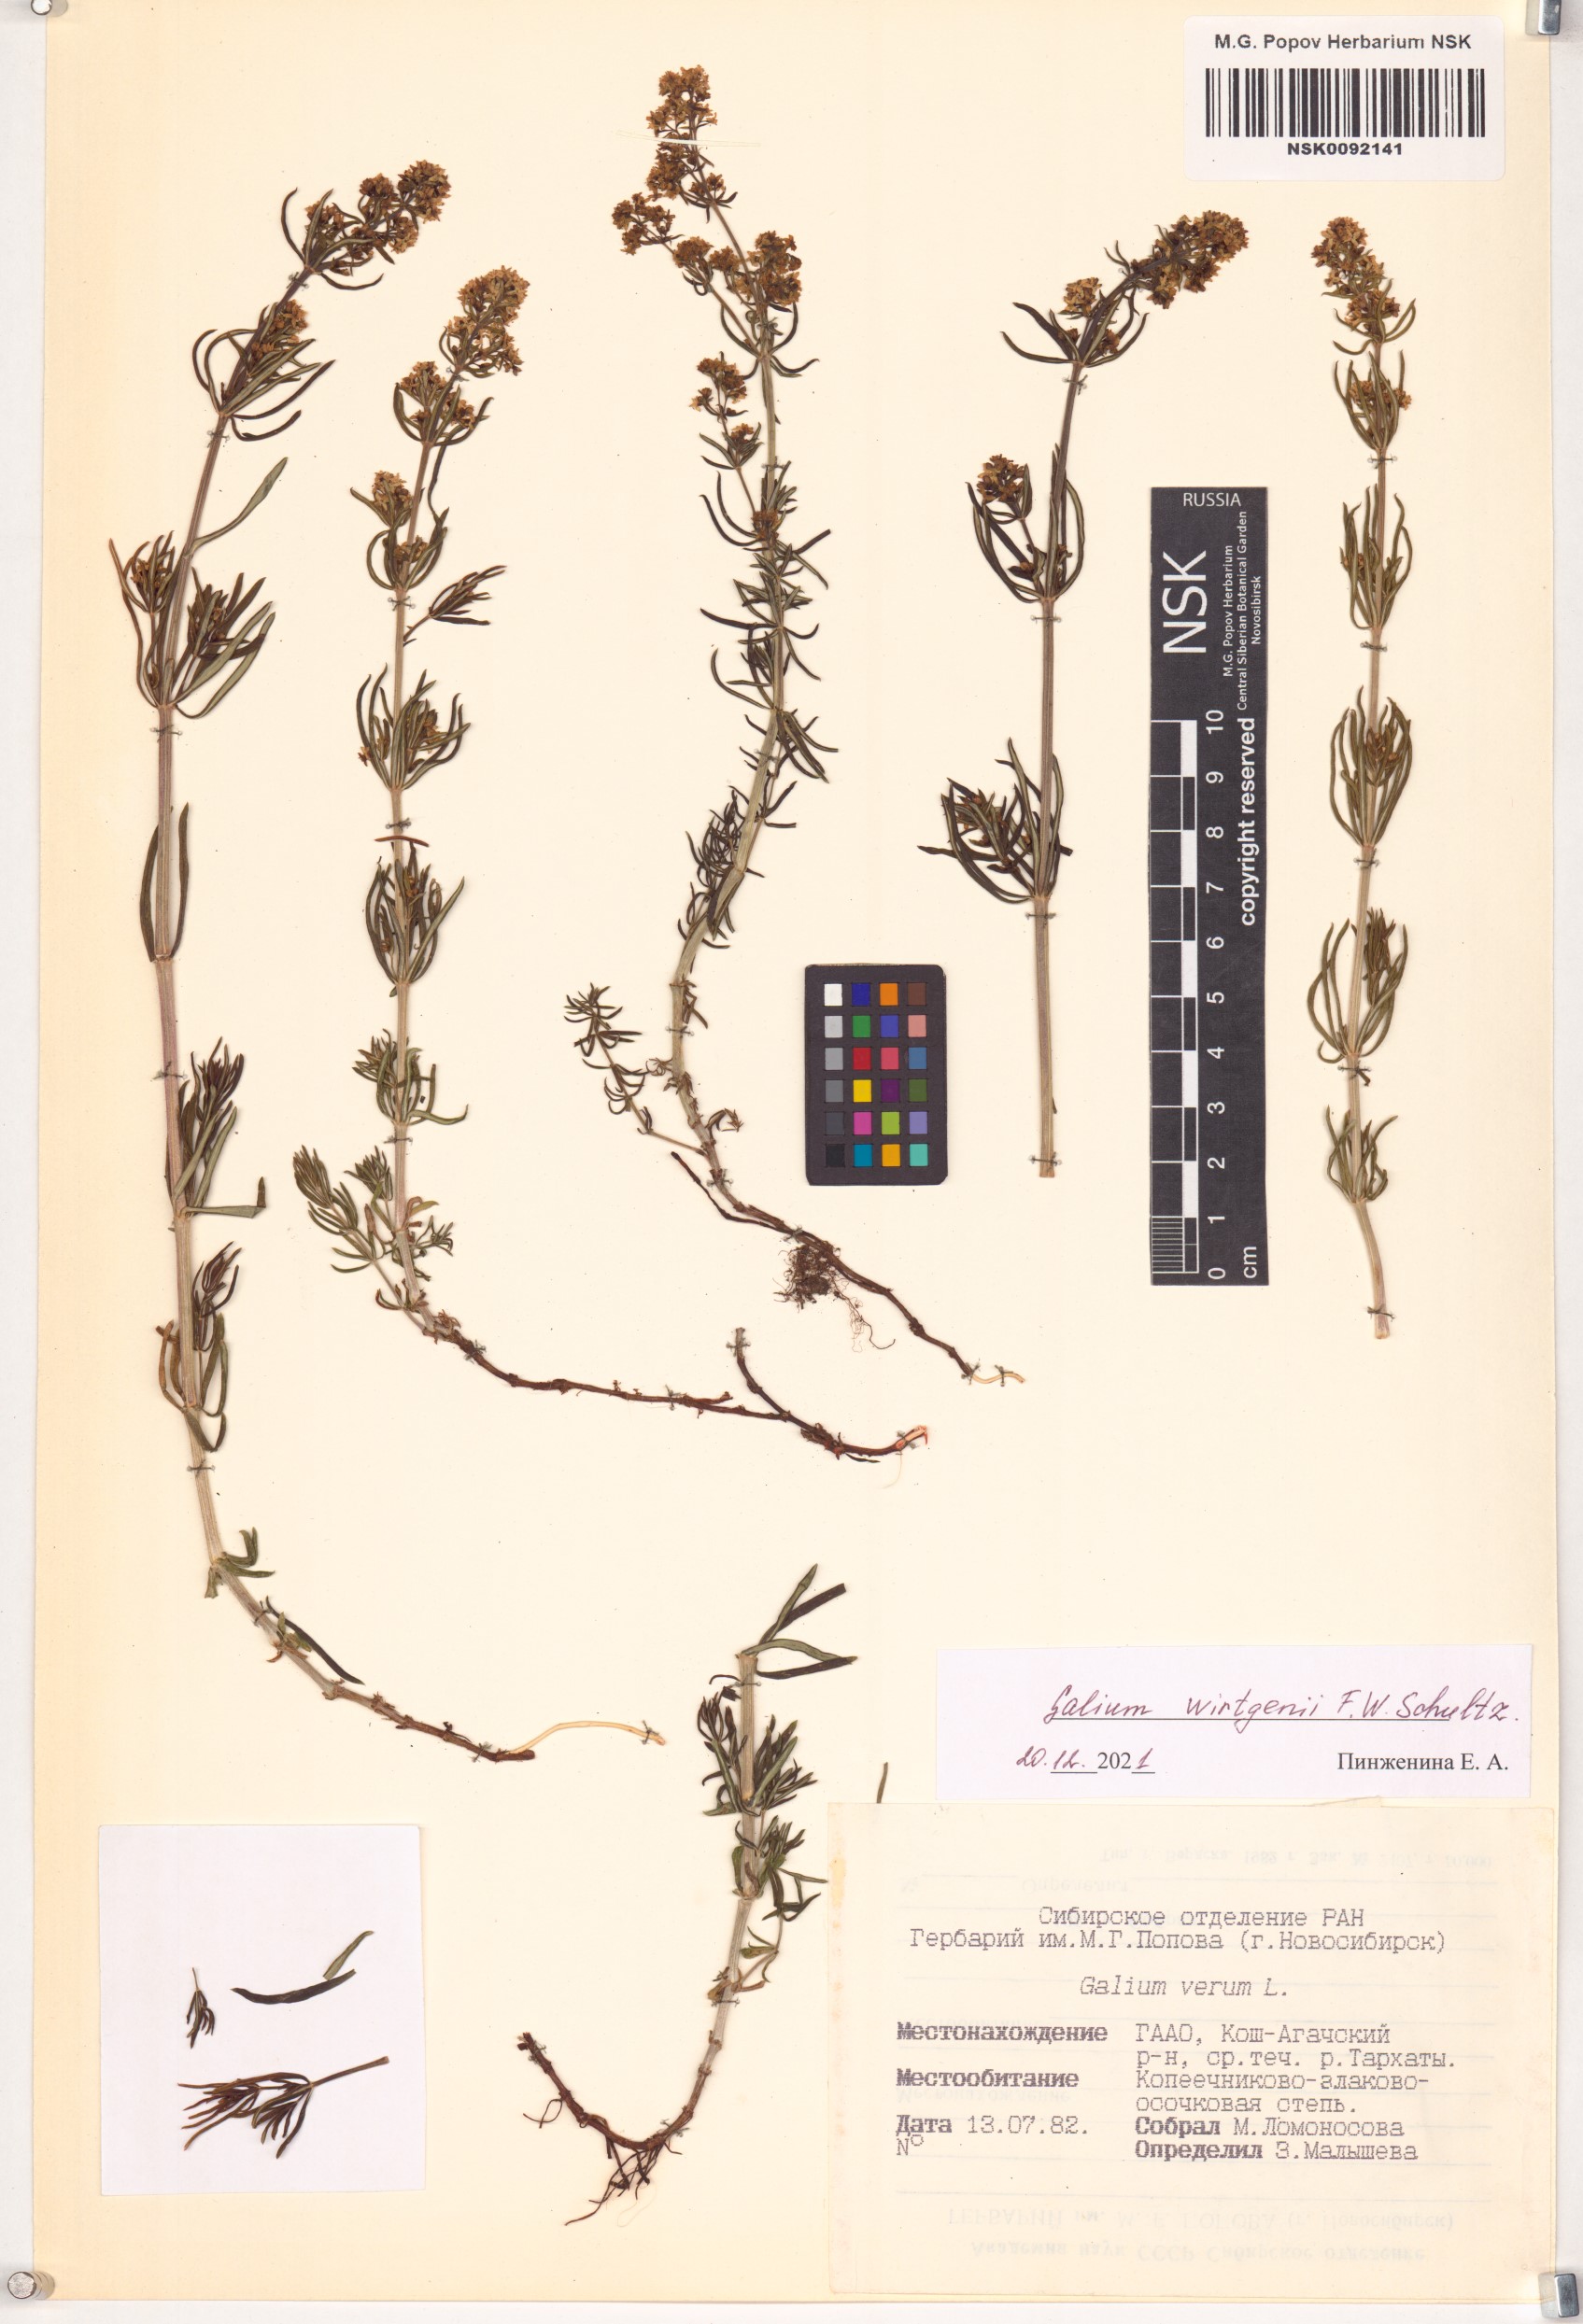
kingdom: Plantae
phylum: Tracheophyta
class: Magnoliopsida
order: Gentianales
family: Rubiaceae
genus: Galium
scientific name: Galium verum
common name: Lady's bedstraw
